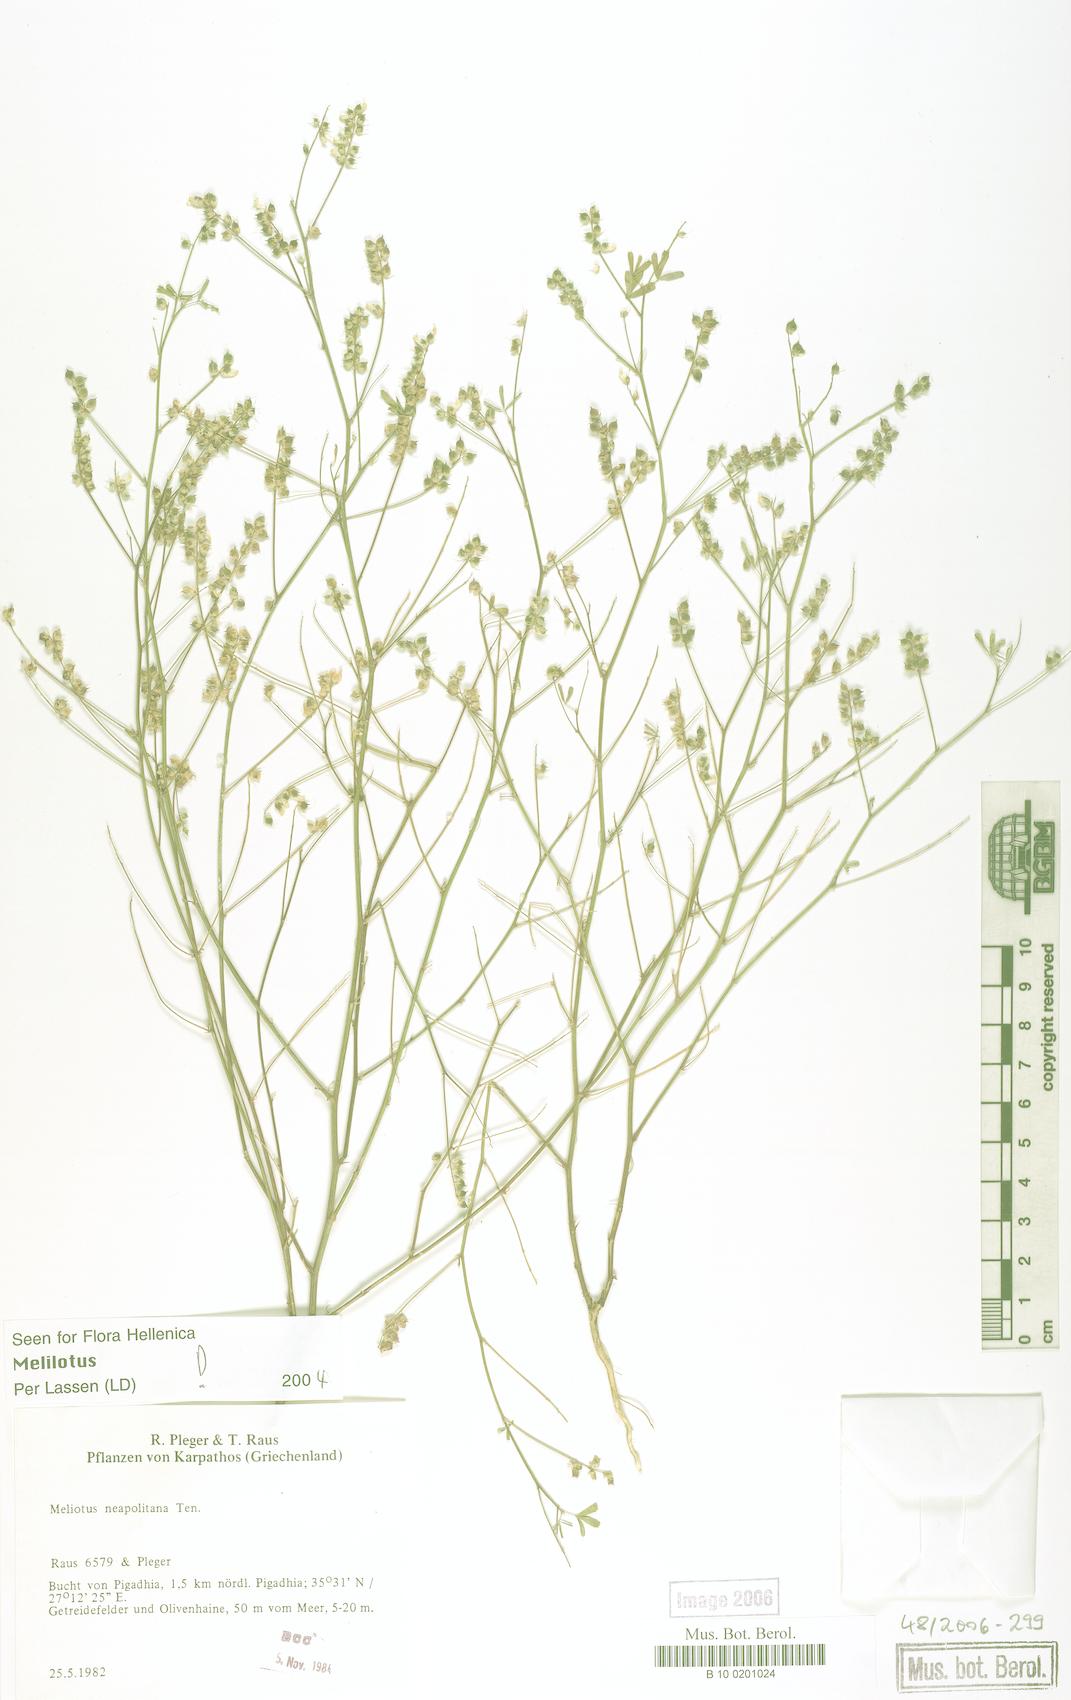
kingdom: Plantae
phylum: Tracheophyta
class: Magnoliopsida
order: Fabales
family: Fabaceae
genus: Melilotus
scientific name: Melilotus neapolitanus
